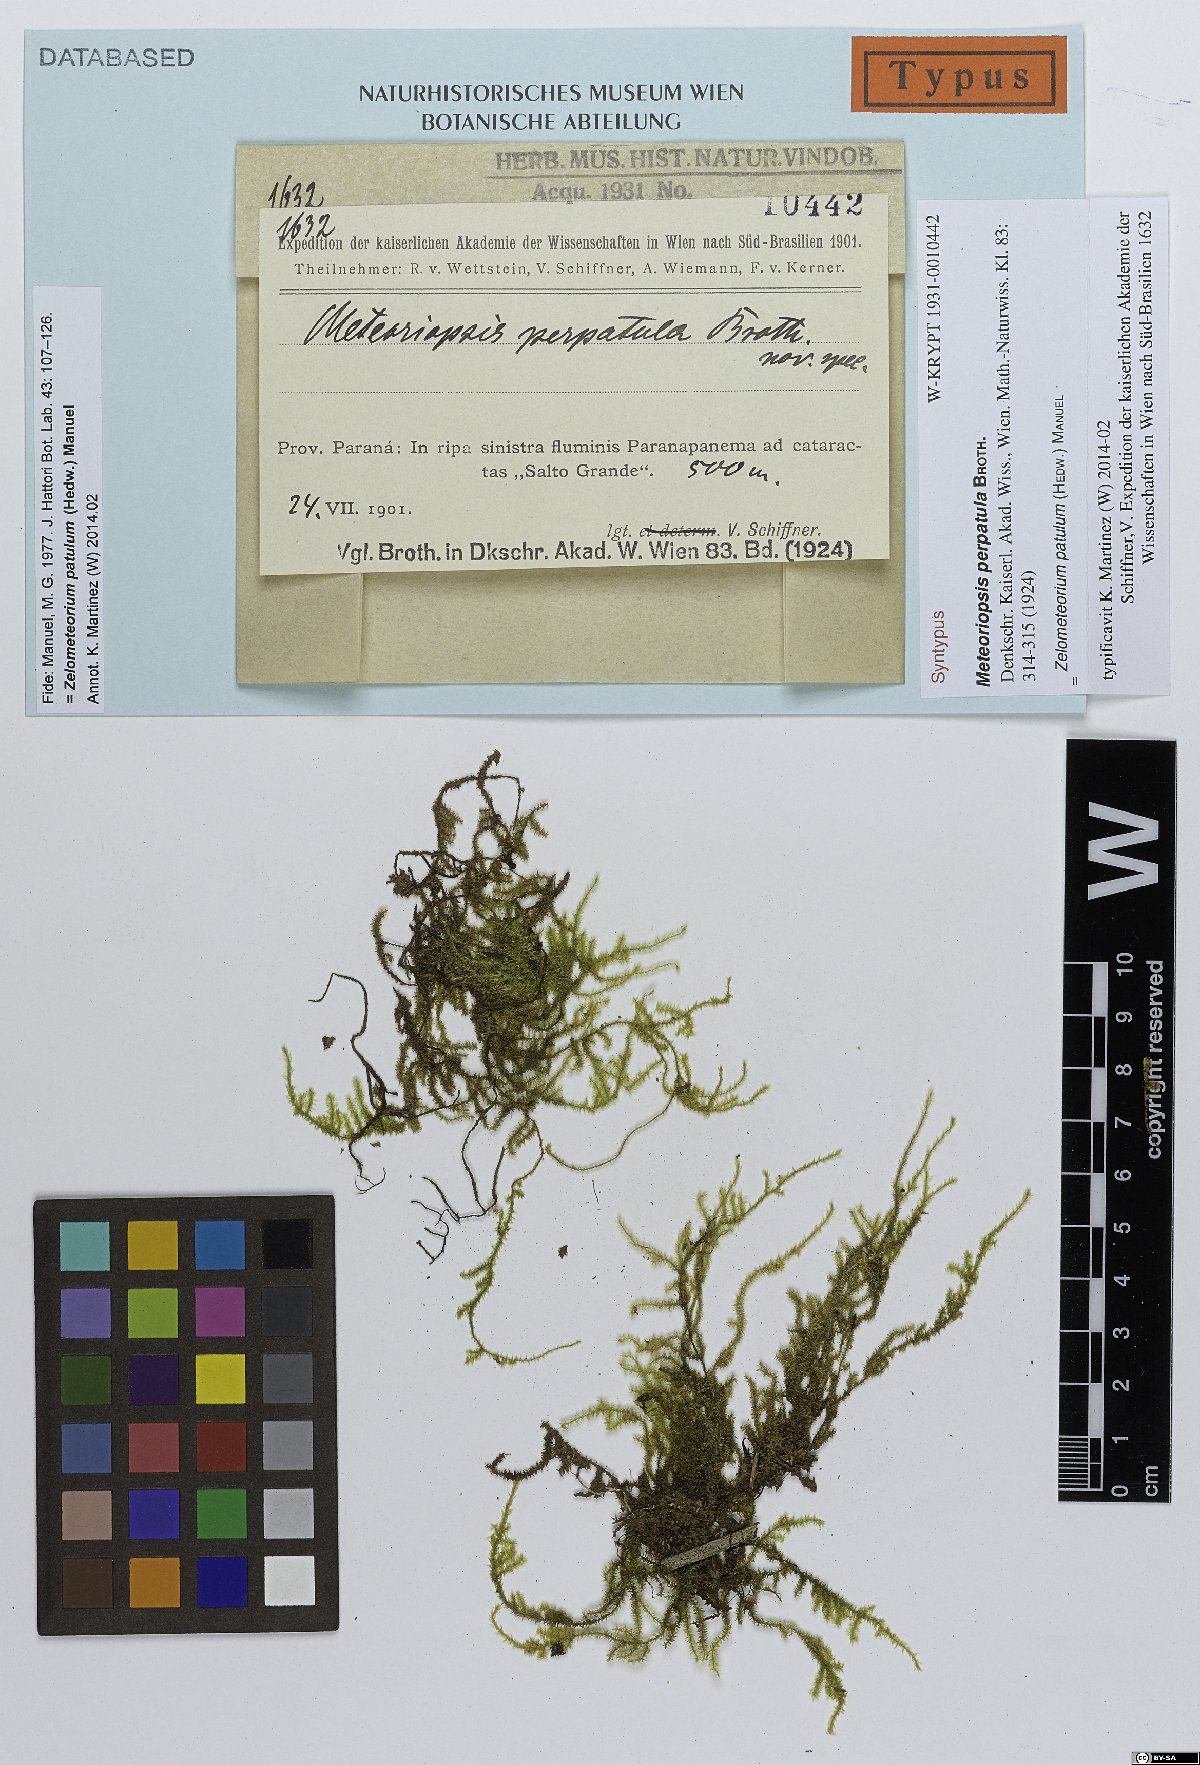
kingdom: Plantae
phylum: Bryophyta
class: Bryopsida
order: Hypnales
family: Brachytheciaceae
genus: Zelometeorium
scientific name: Zelometeorium patulum
